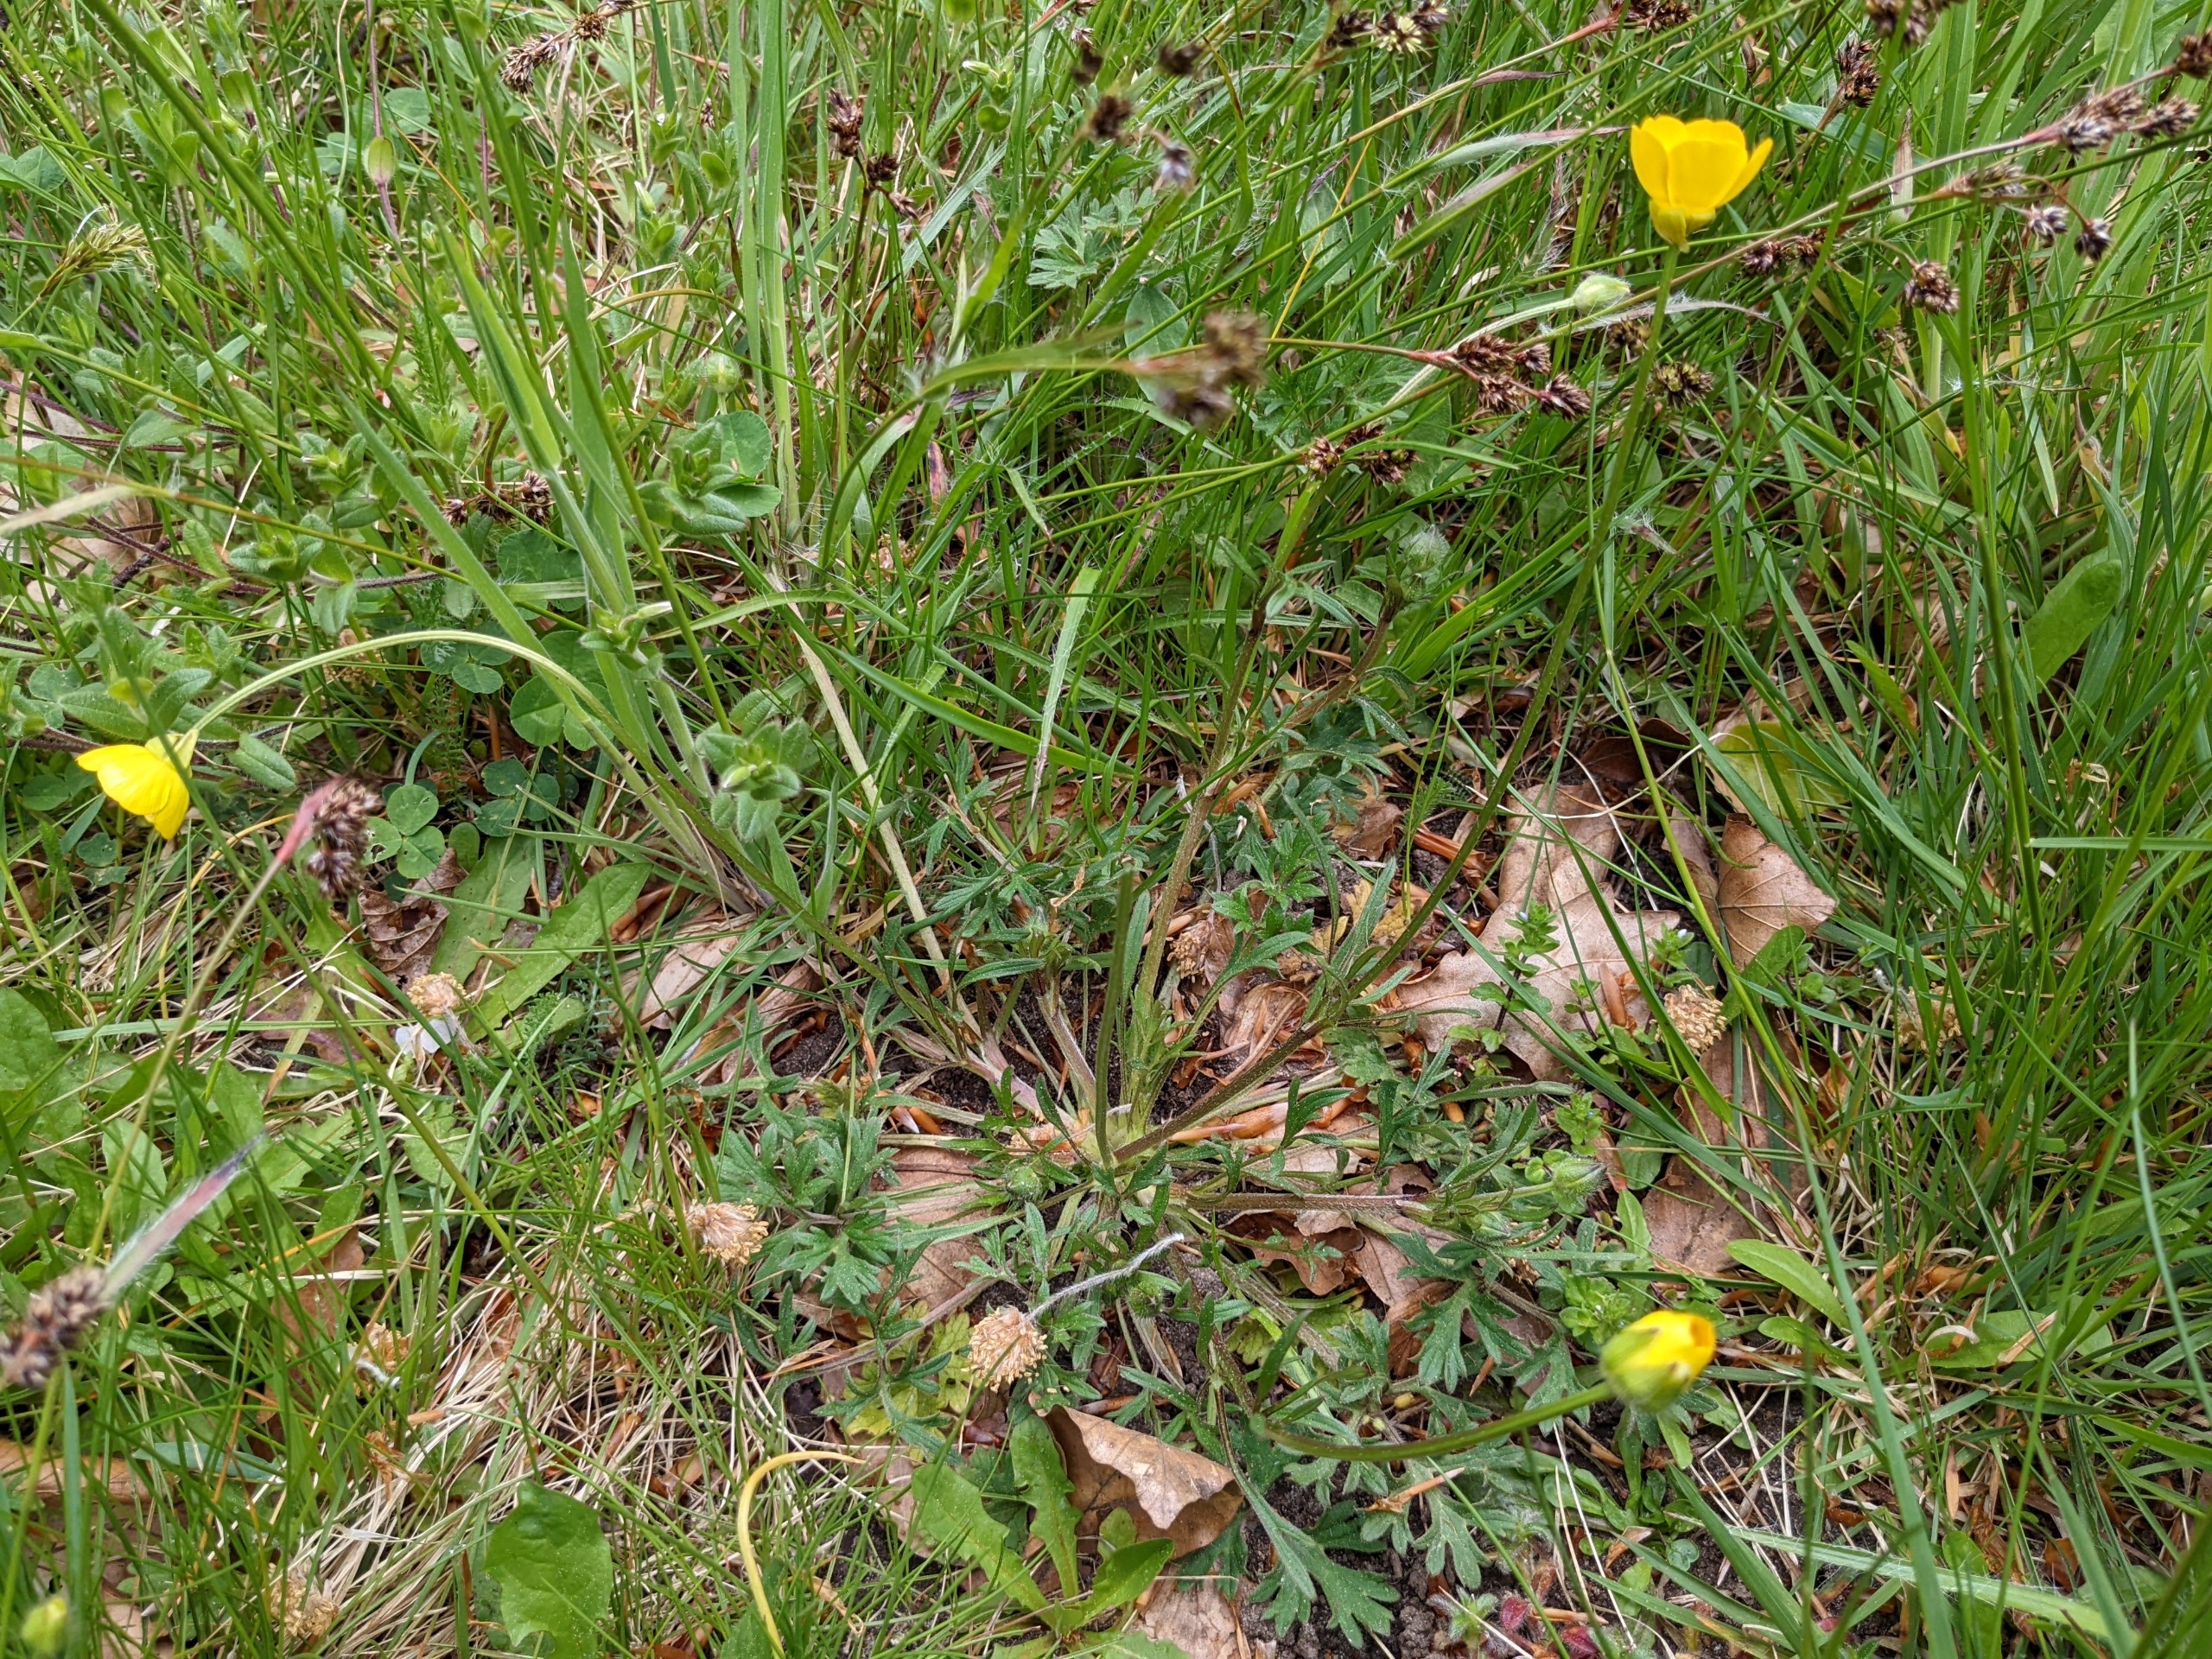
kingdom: Plantae
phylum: Tracheophyta
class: Magnoliopsida
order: Ranunculales
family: Ranunculaceae
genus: Ranunculus
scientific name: Ranunculus bulbosus
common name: Knold-ranunkel
